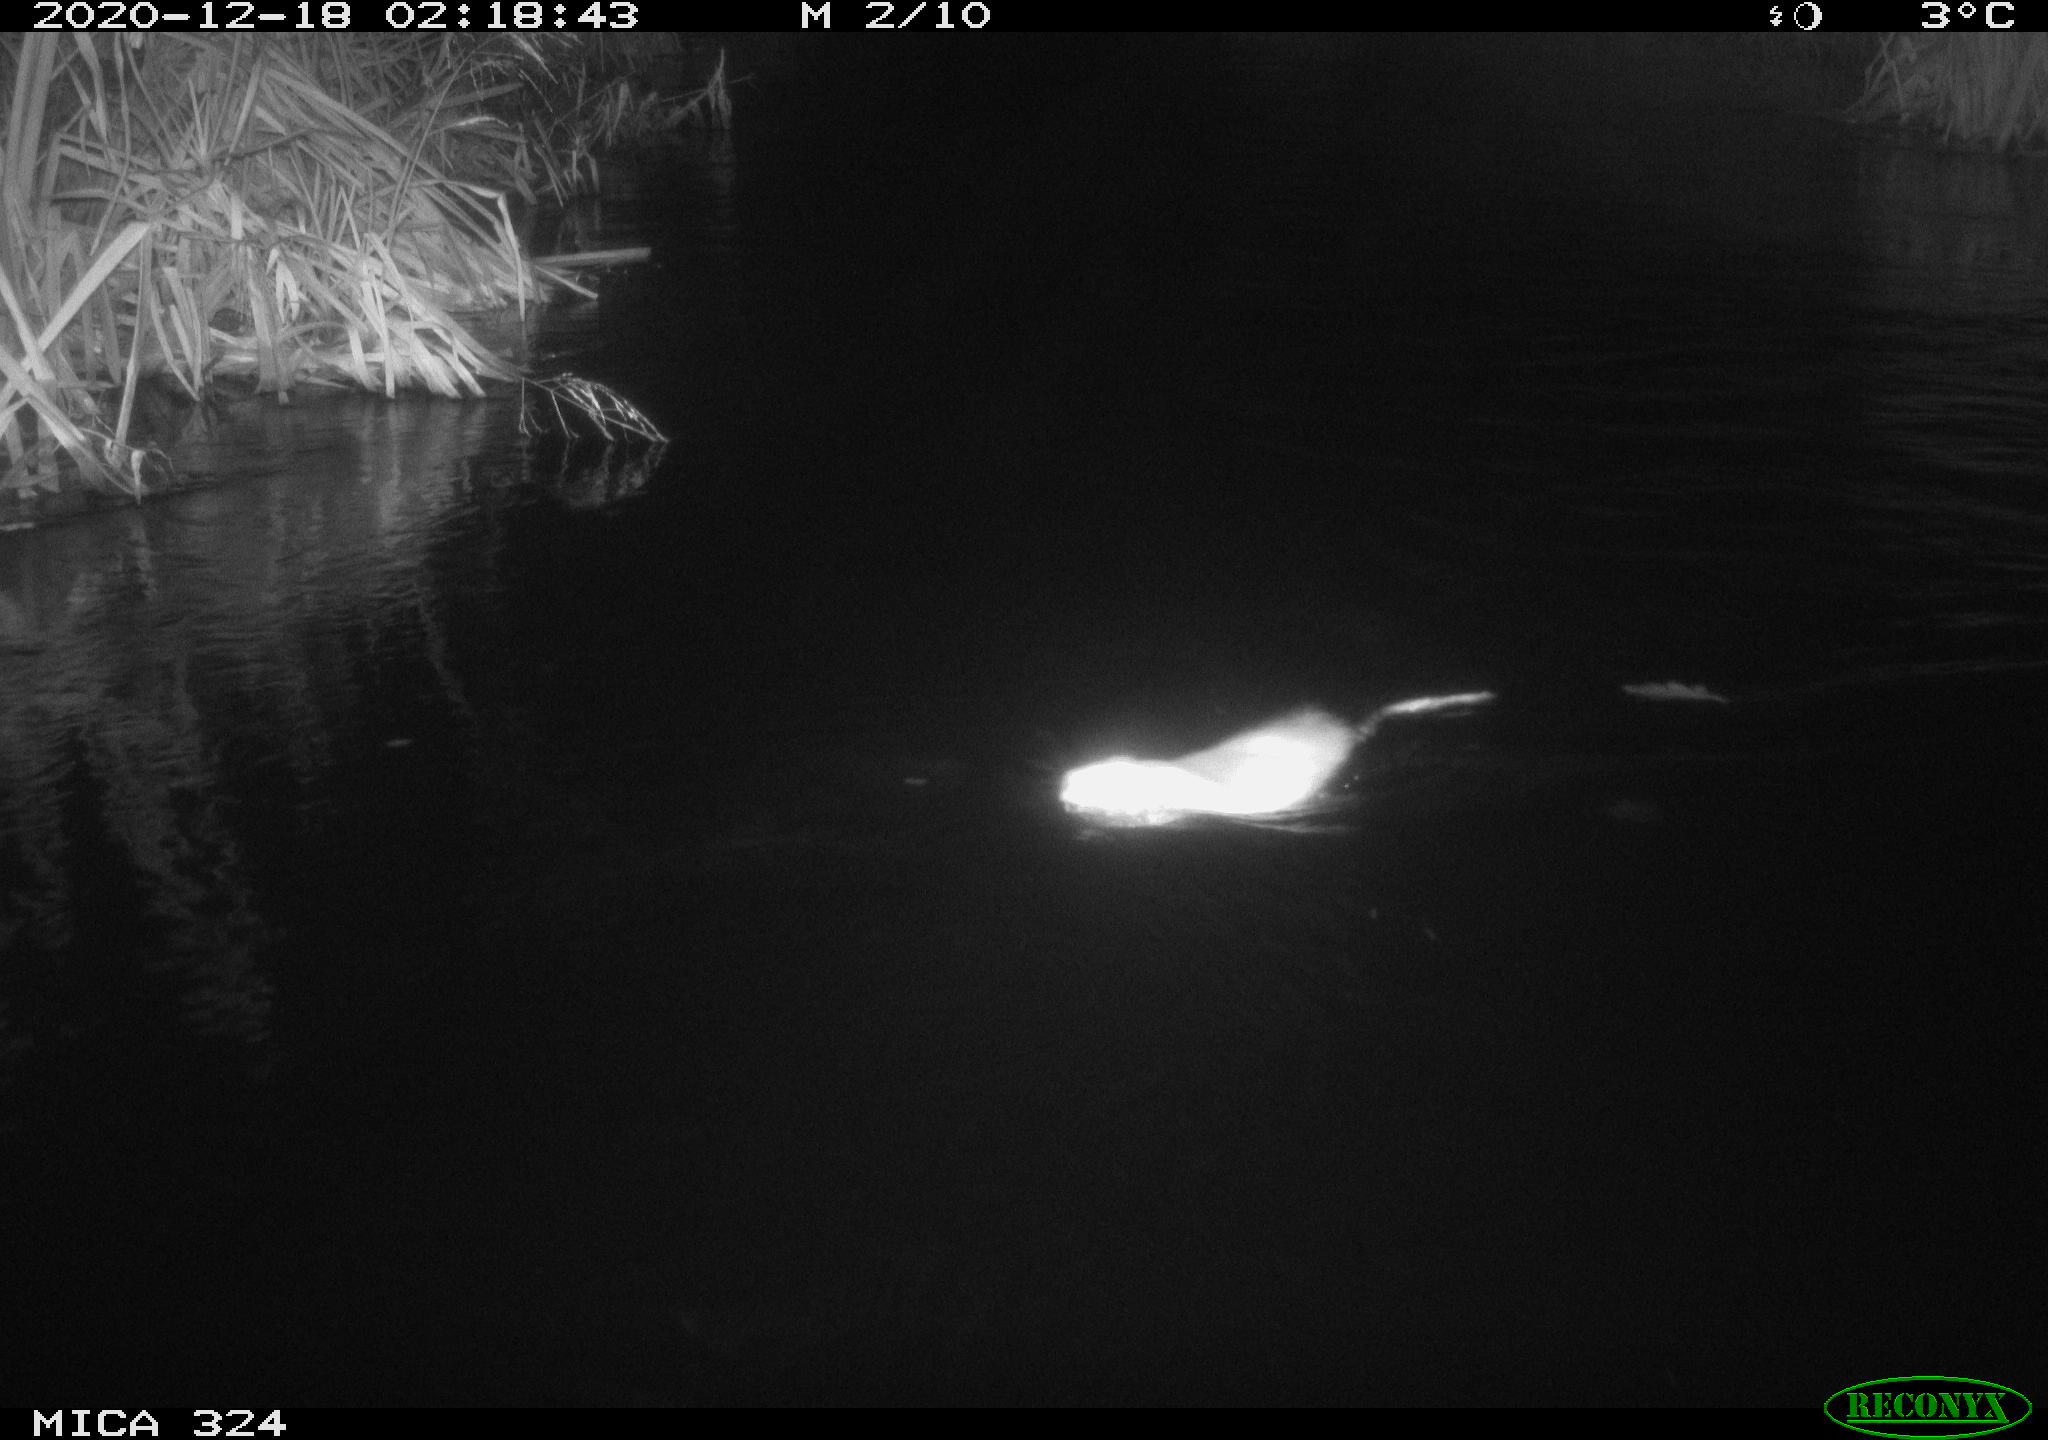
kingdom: Animalia
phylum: Chordata
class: Mammalia
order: Rodentia
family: Cricetidae
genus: Ondatra
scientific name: Ondatra zibethicus
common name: Muskrat
